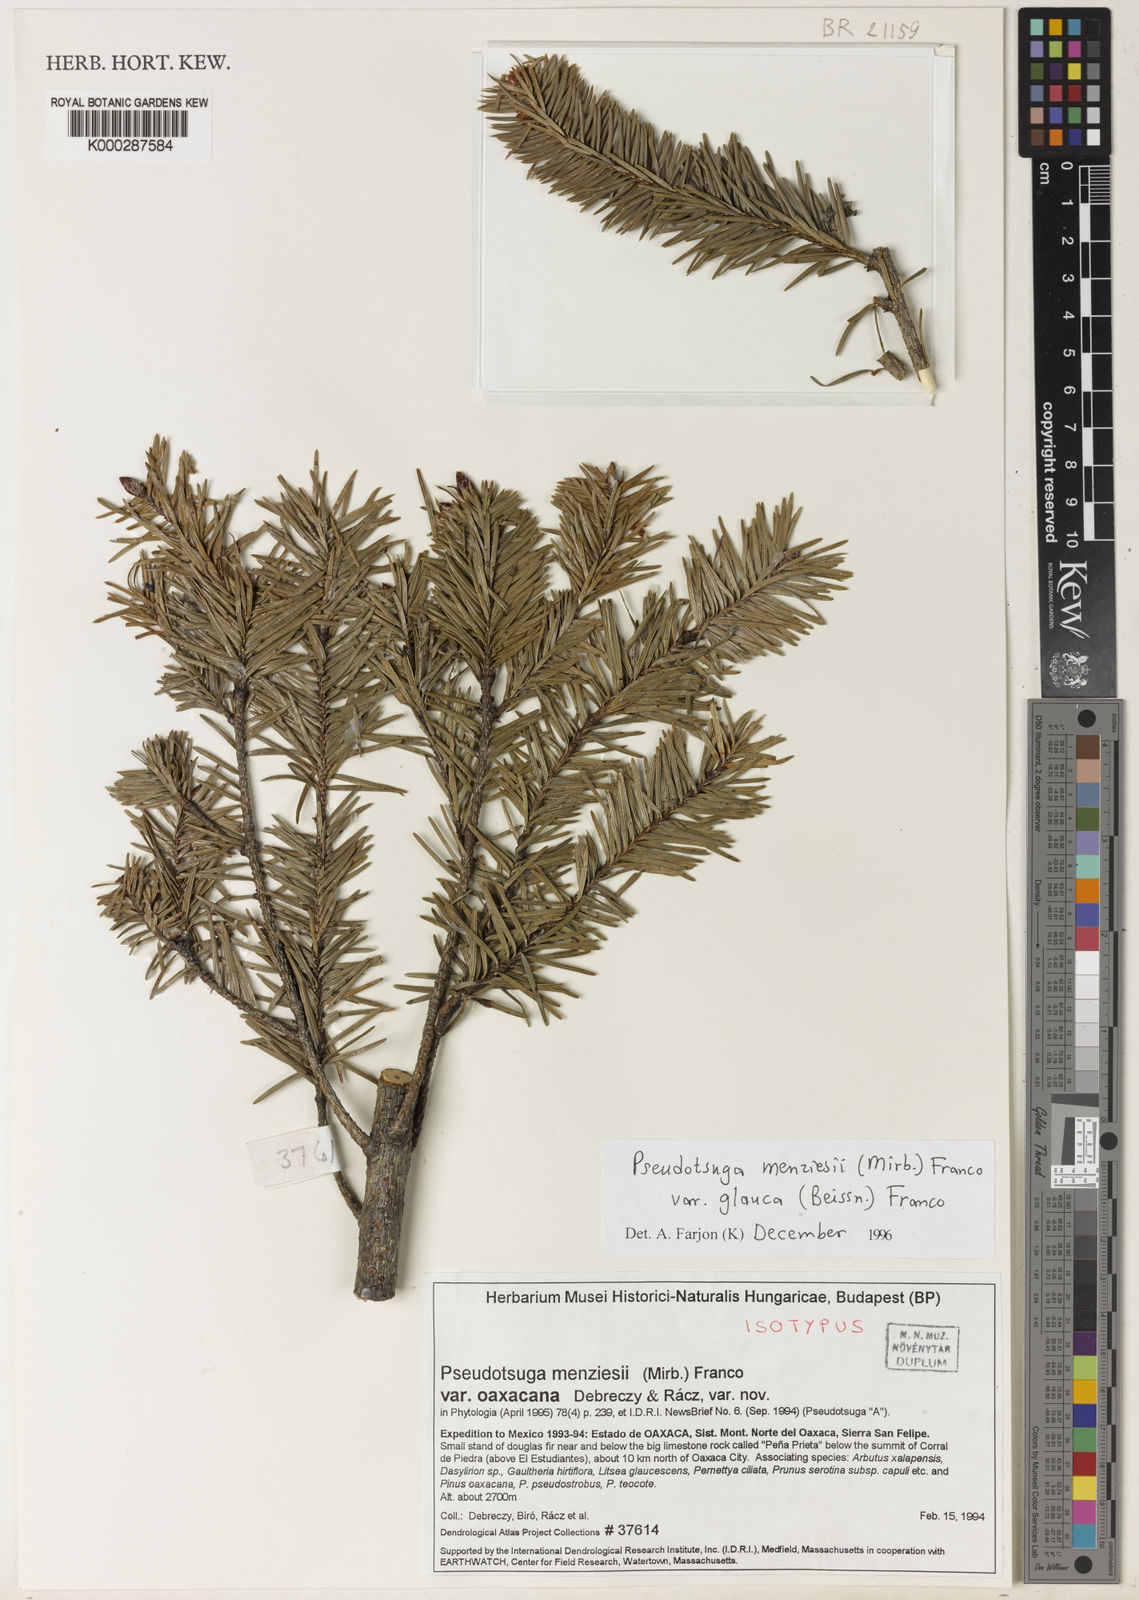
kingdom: Plantae
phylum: Tracheophyta
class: Pinopsida
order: Pinales
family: Pinaceae
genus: Pseudotsuga
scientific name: Pseudotsuga menziesii
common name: Douglas fir
